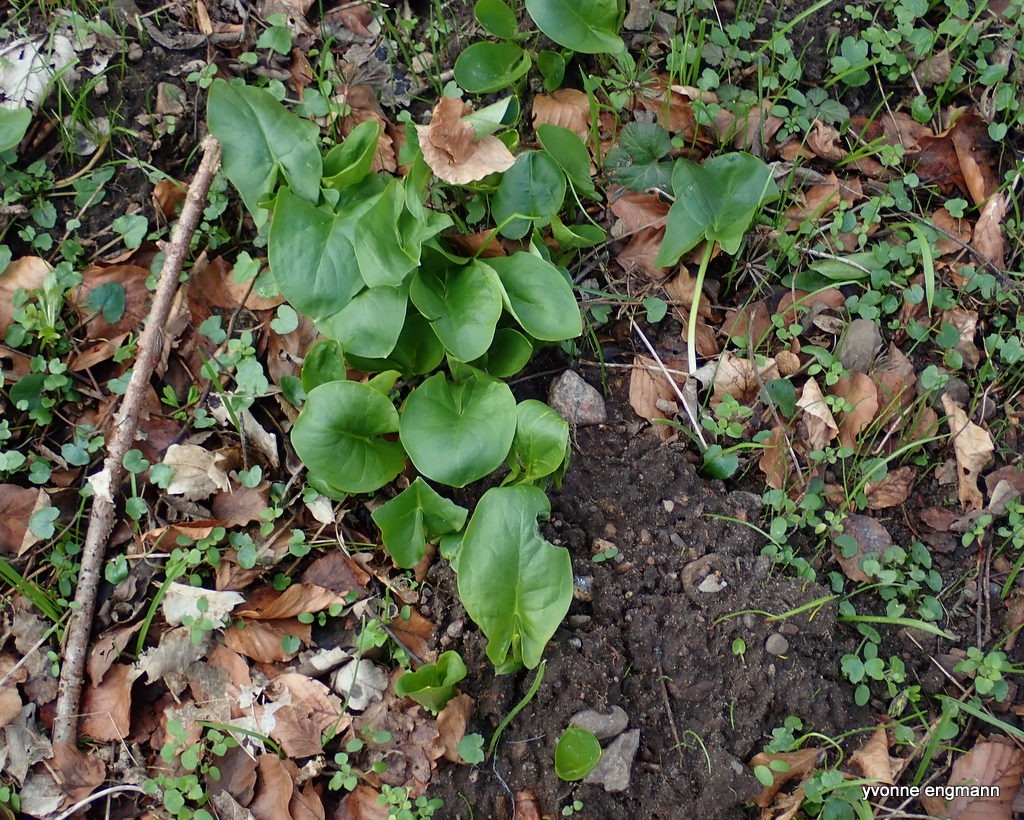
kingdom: Plantae
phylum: Tracheophyta
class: Liliopsida
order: Alismatales
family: Araceae
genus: Arum
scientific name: Arum
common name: Arumslægten
